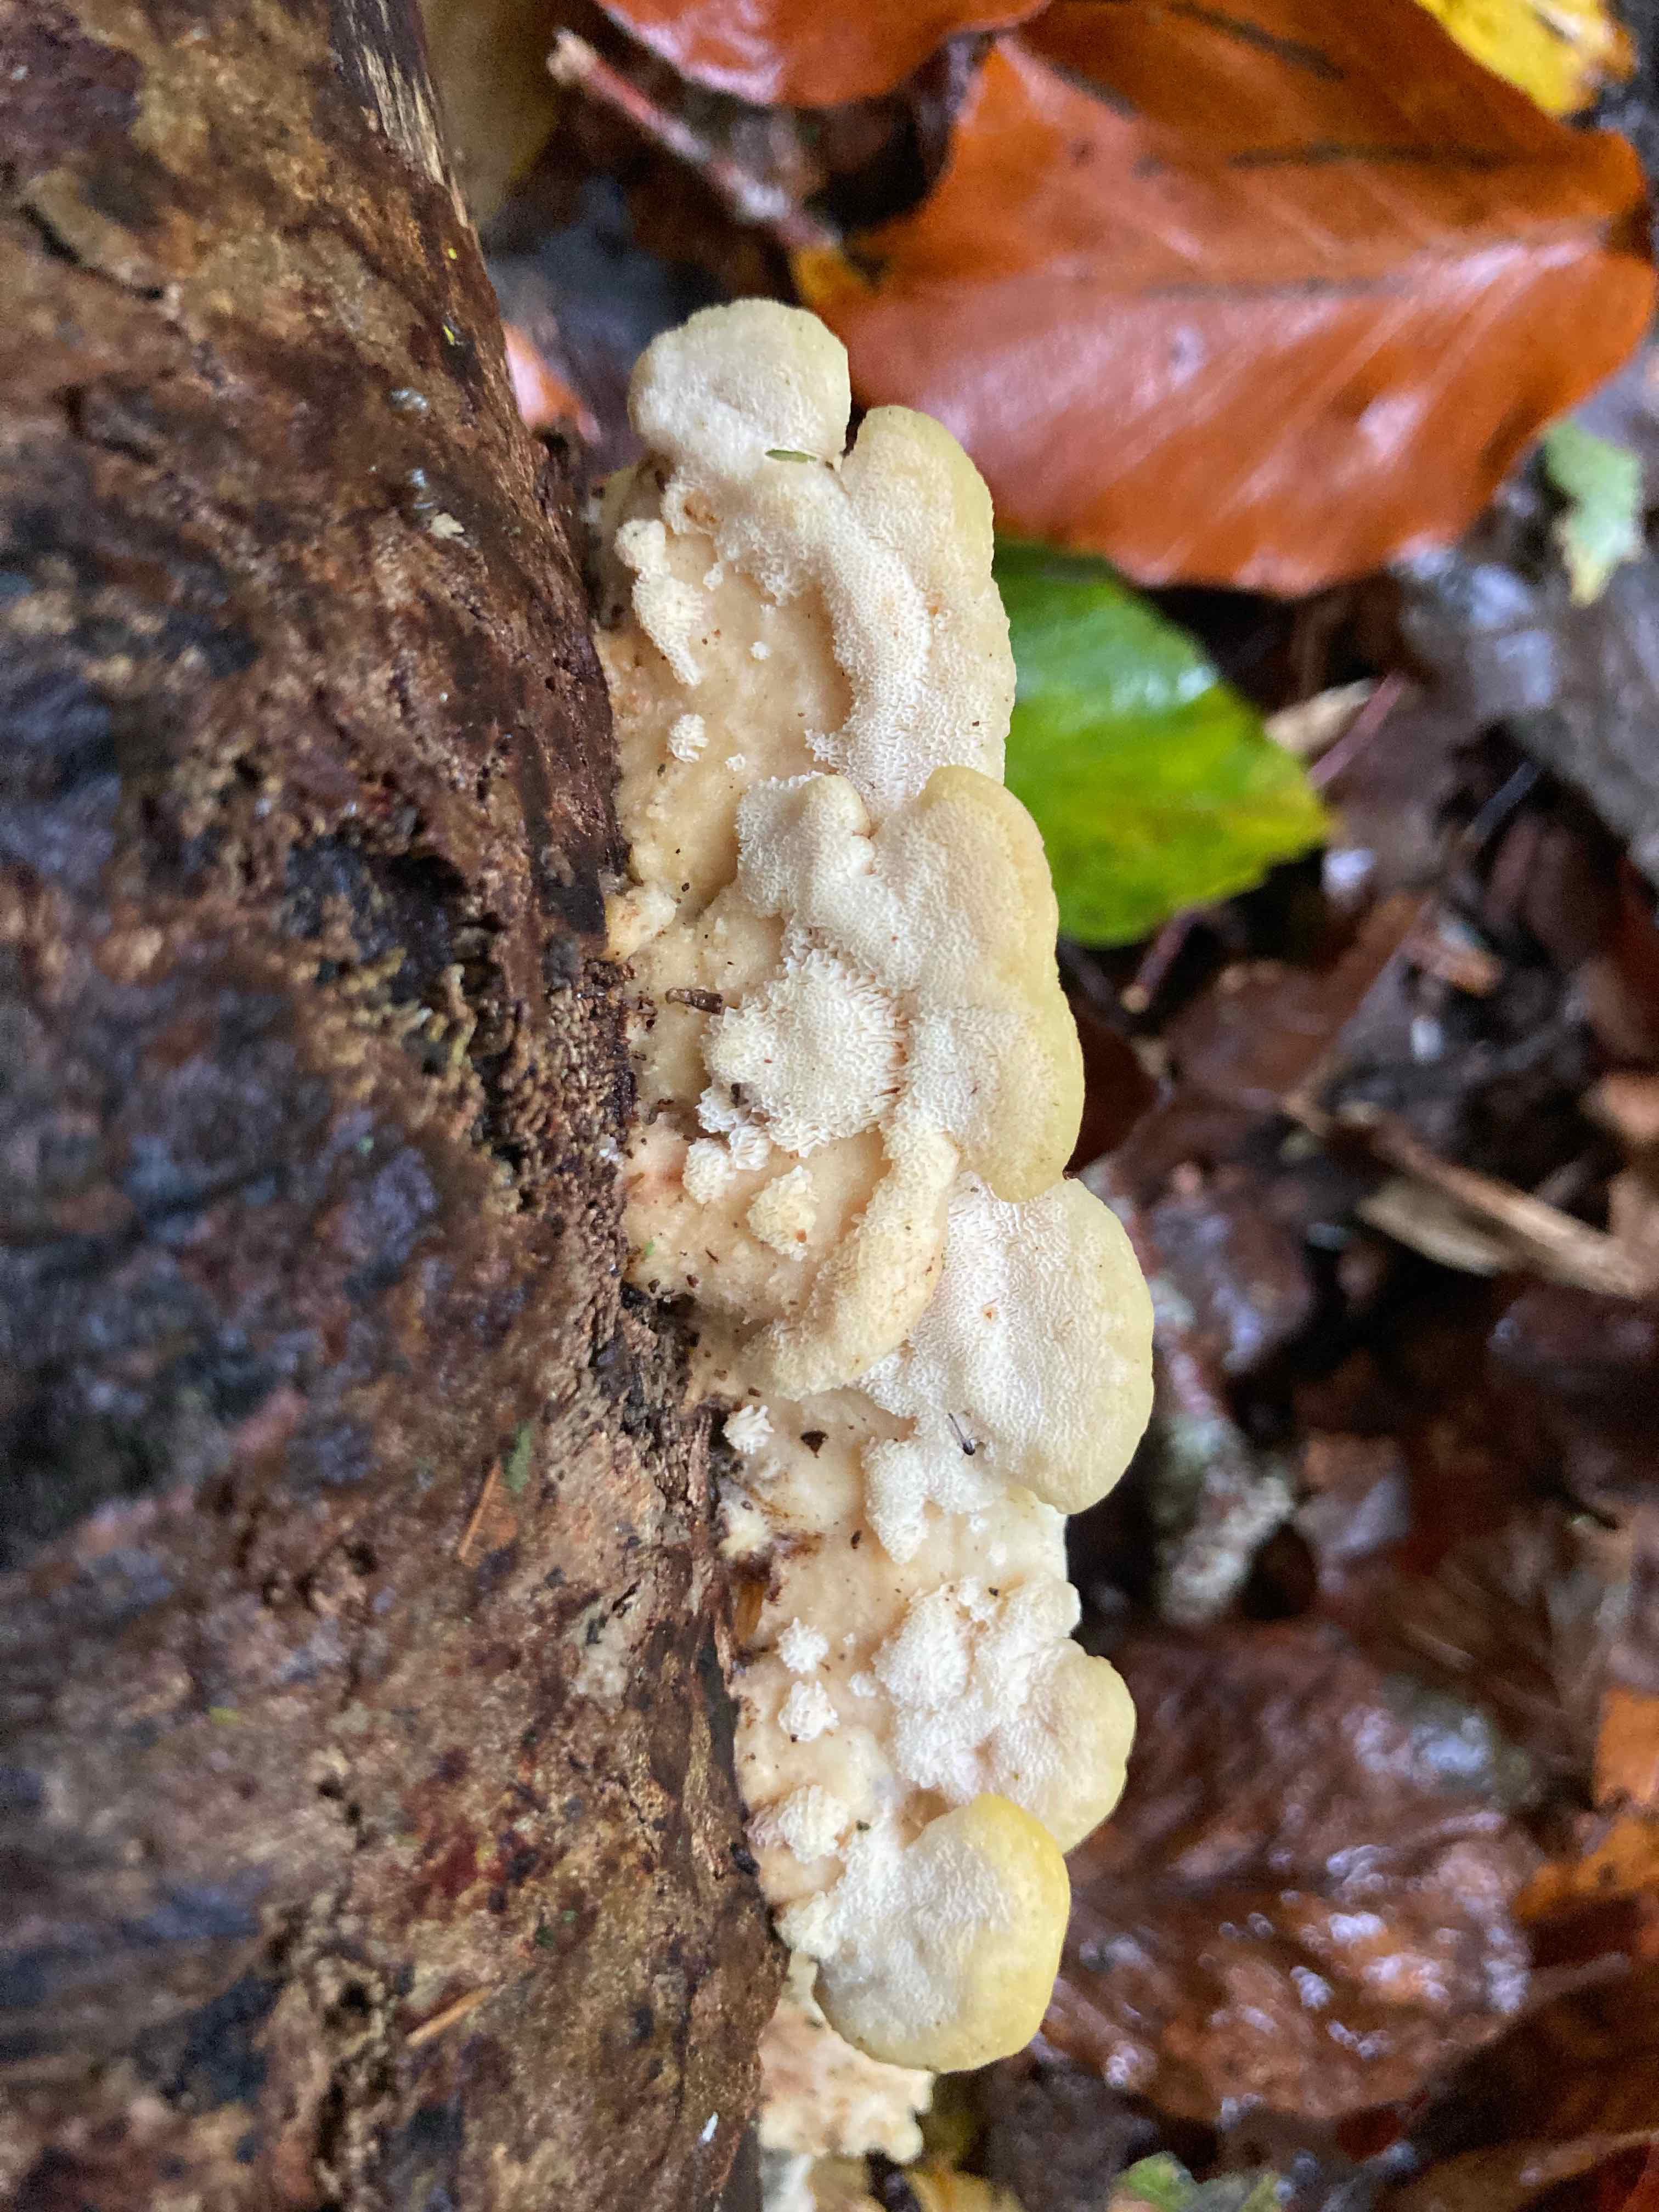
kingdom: Fungi
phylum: Basidiomycota
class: Agaricomycetes
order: Polyporales
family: Steccherinaceae
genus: Antrodiella
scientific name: Antrodiella serpula
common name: gulrandet elastikporesvamp
